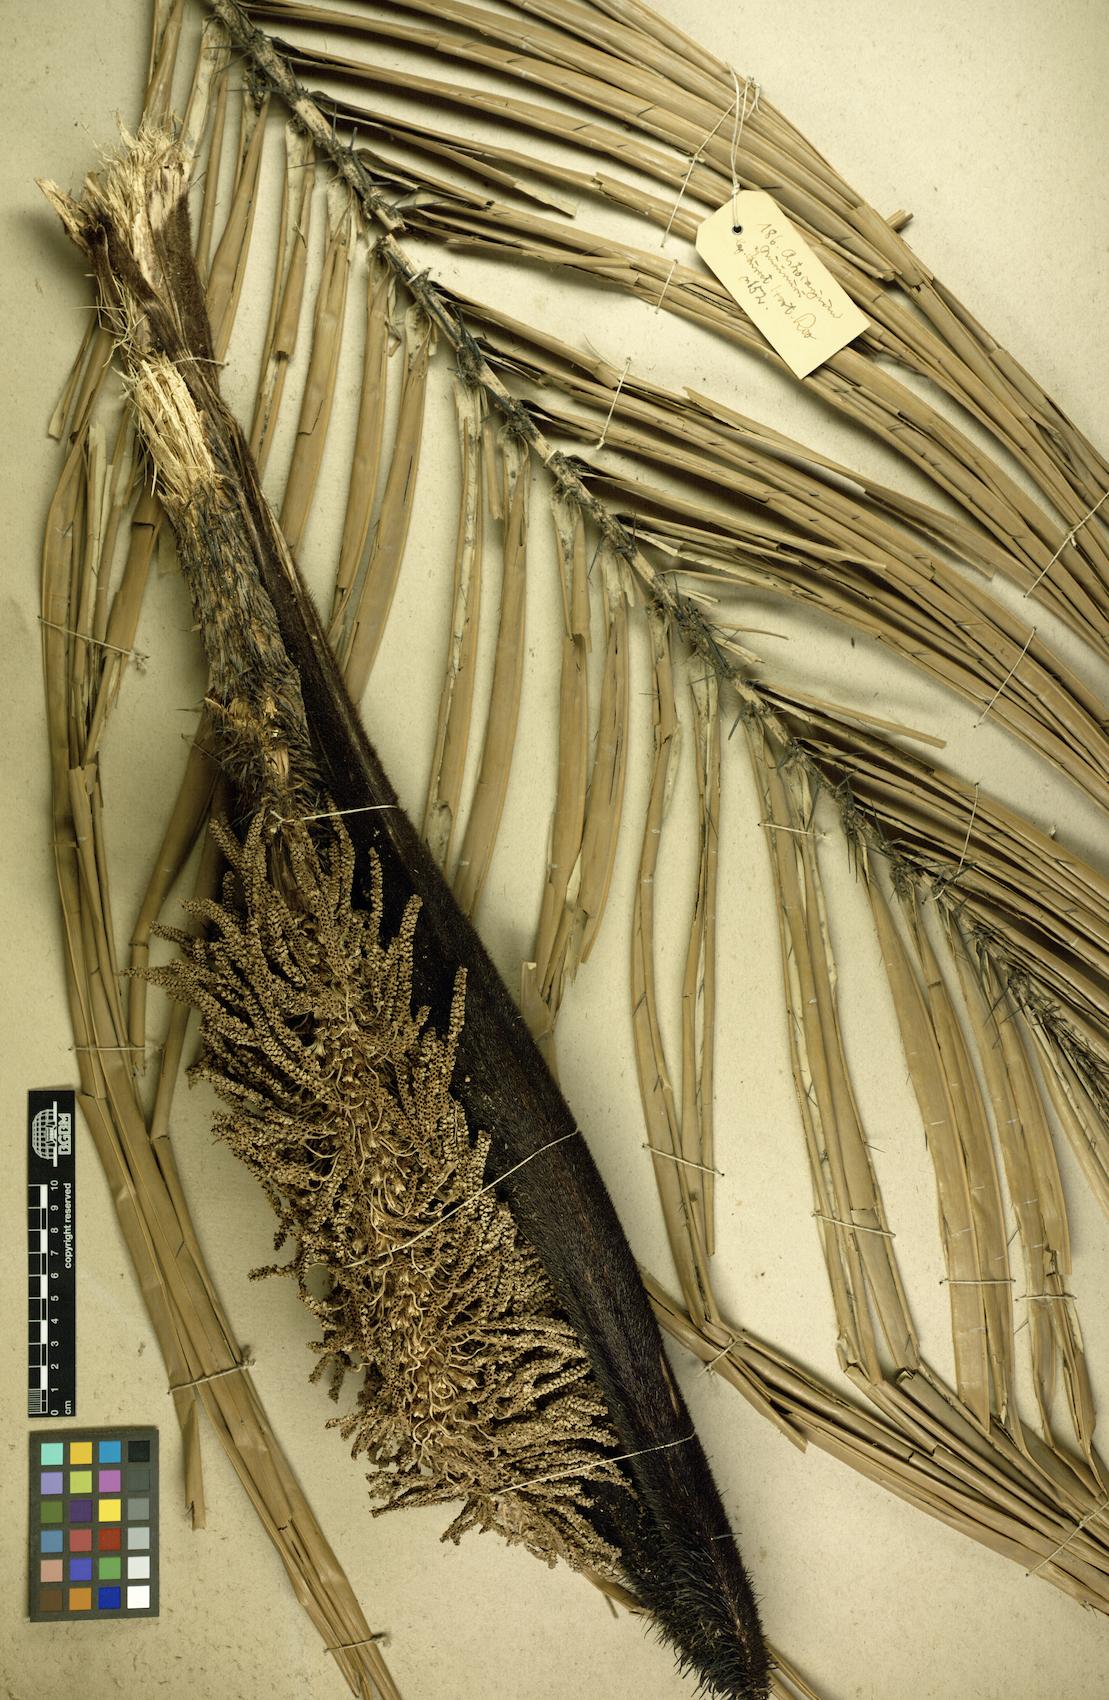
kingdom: Plantae
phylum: Tracheophyta
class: Liliopsida
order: Arecales
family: Arecaceae
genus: Astrocaryum
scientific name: Astrocaryum murumuru
